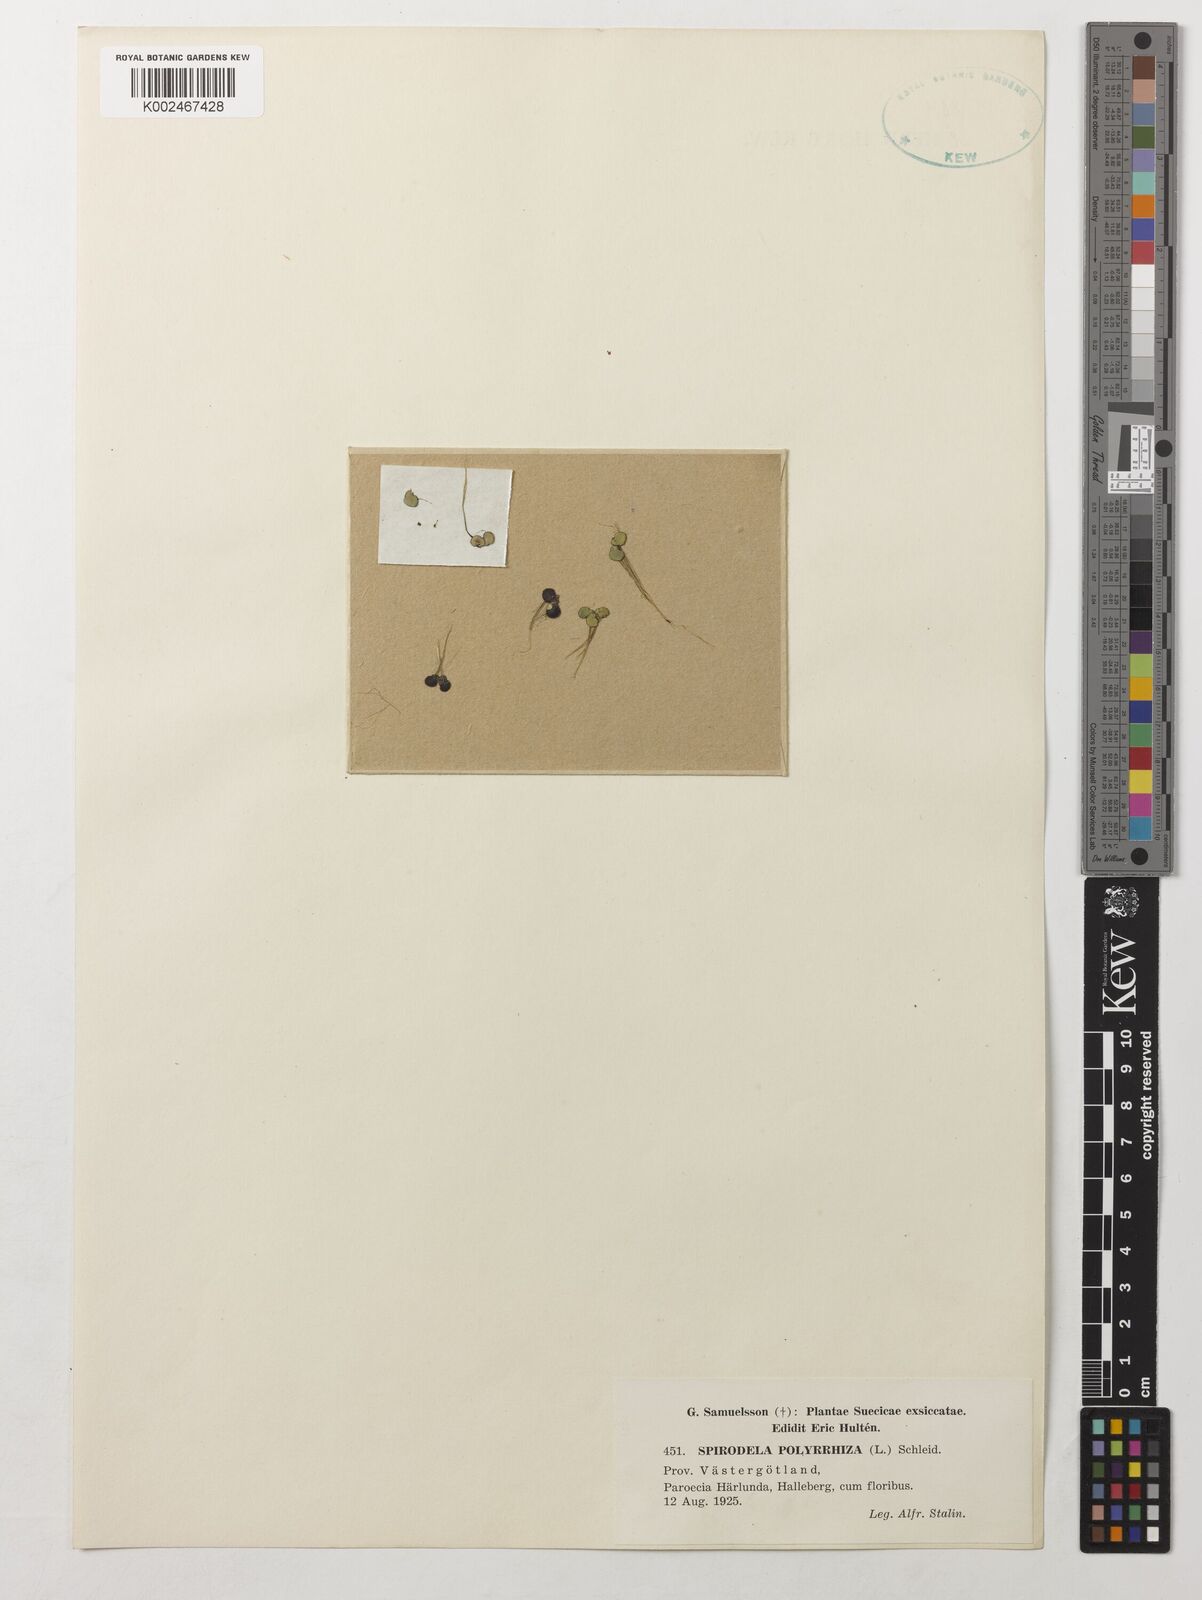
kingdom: Plantae
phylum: Tracheophyta
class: Liliopsida
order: Alismatales
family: Araceae
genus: Spirodela
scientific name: Spirodela polyrhiza
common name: Great duckweed
